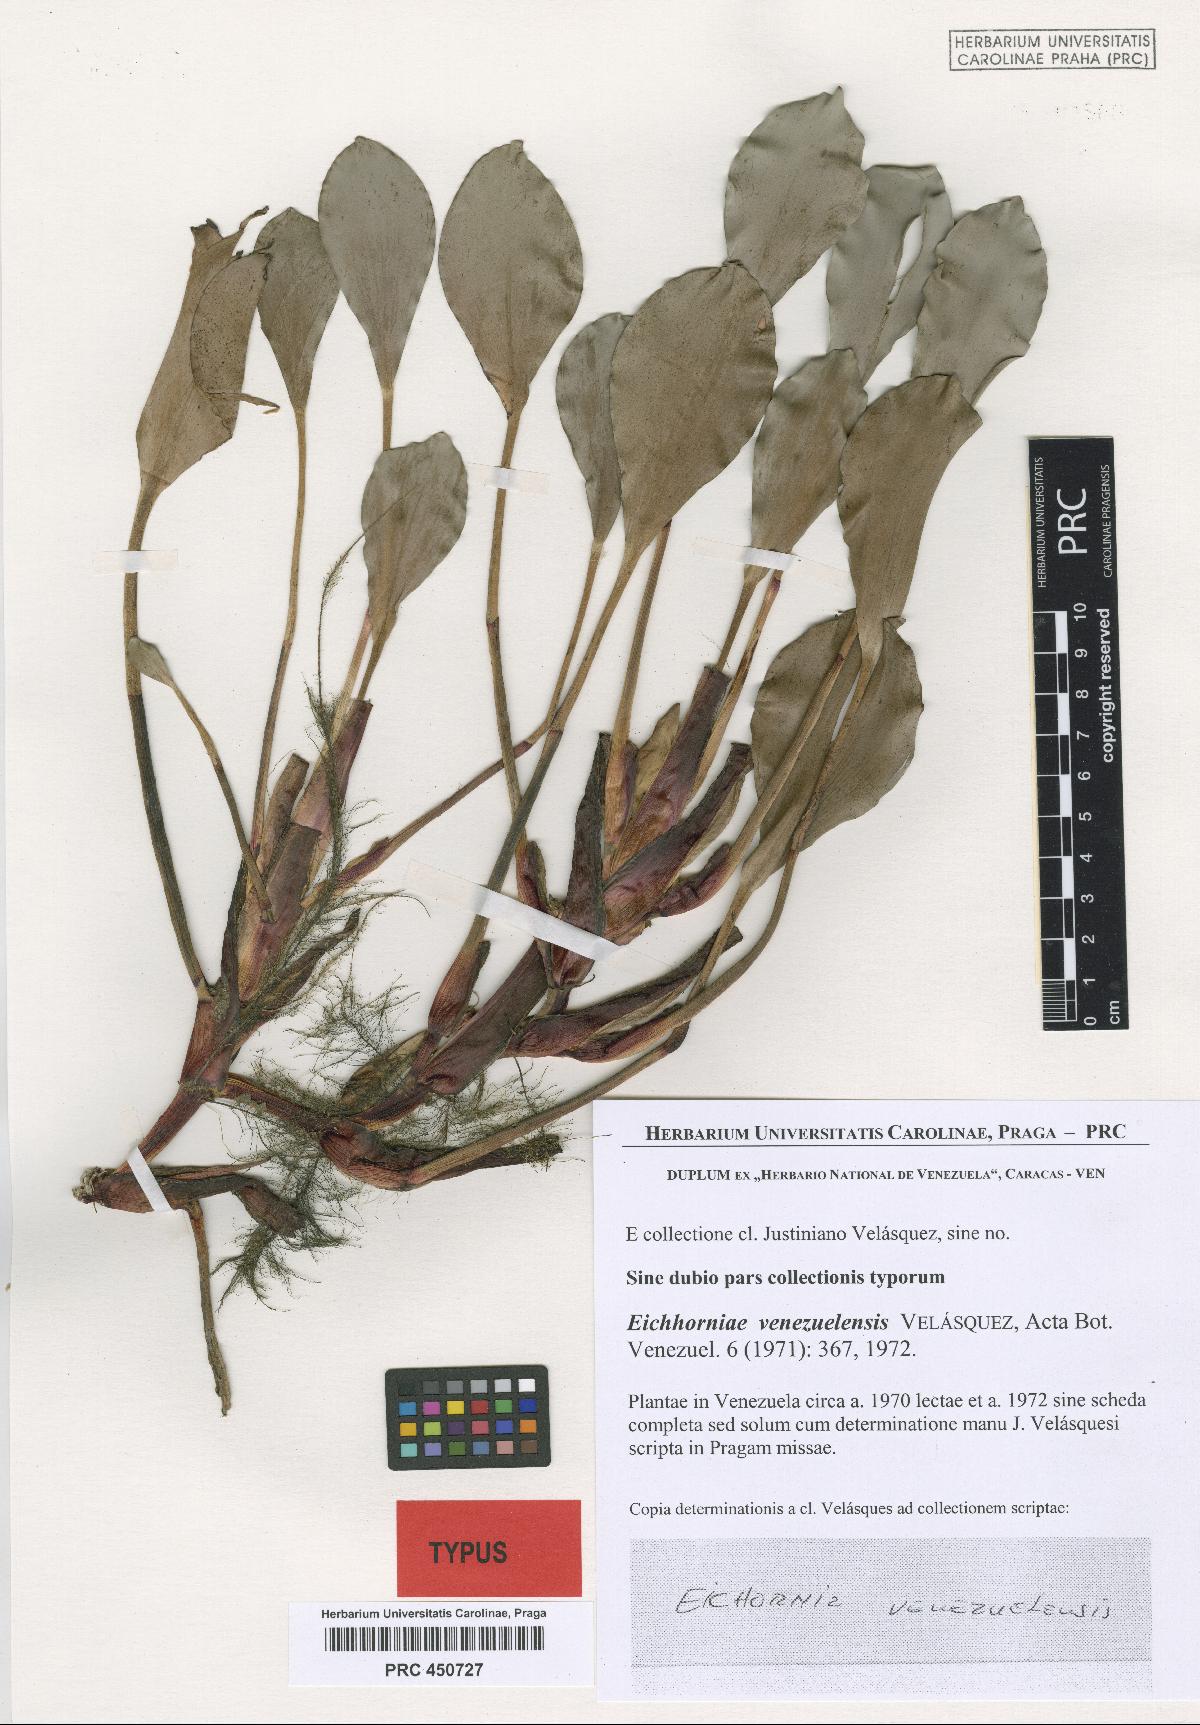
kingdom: Plantae
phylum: Tracheophyta
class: Liliopsida
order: Commelinales
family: Pontederiaceae
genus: Pontederia
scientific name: Pontederia heterosperma
